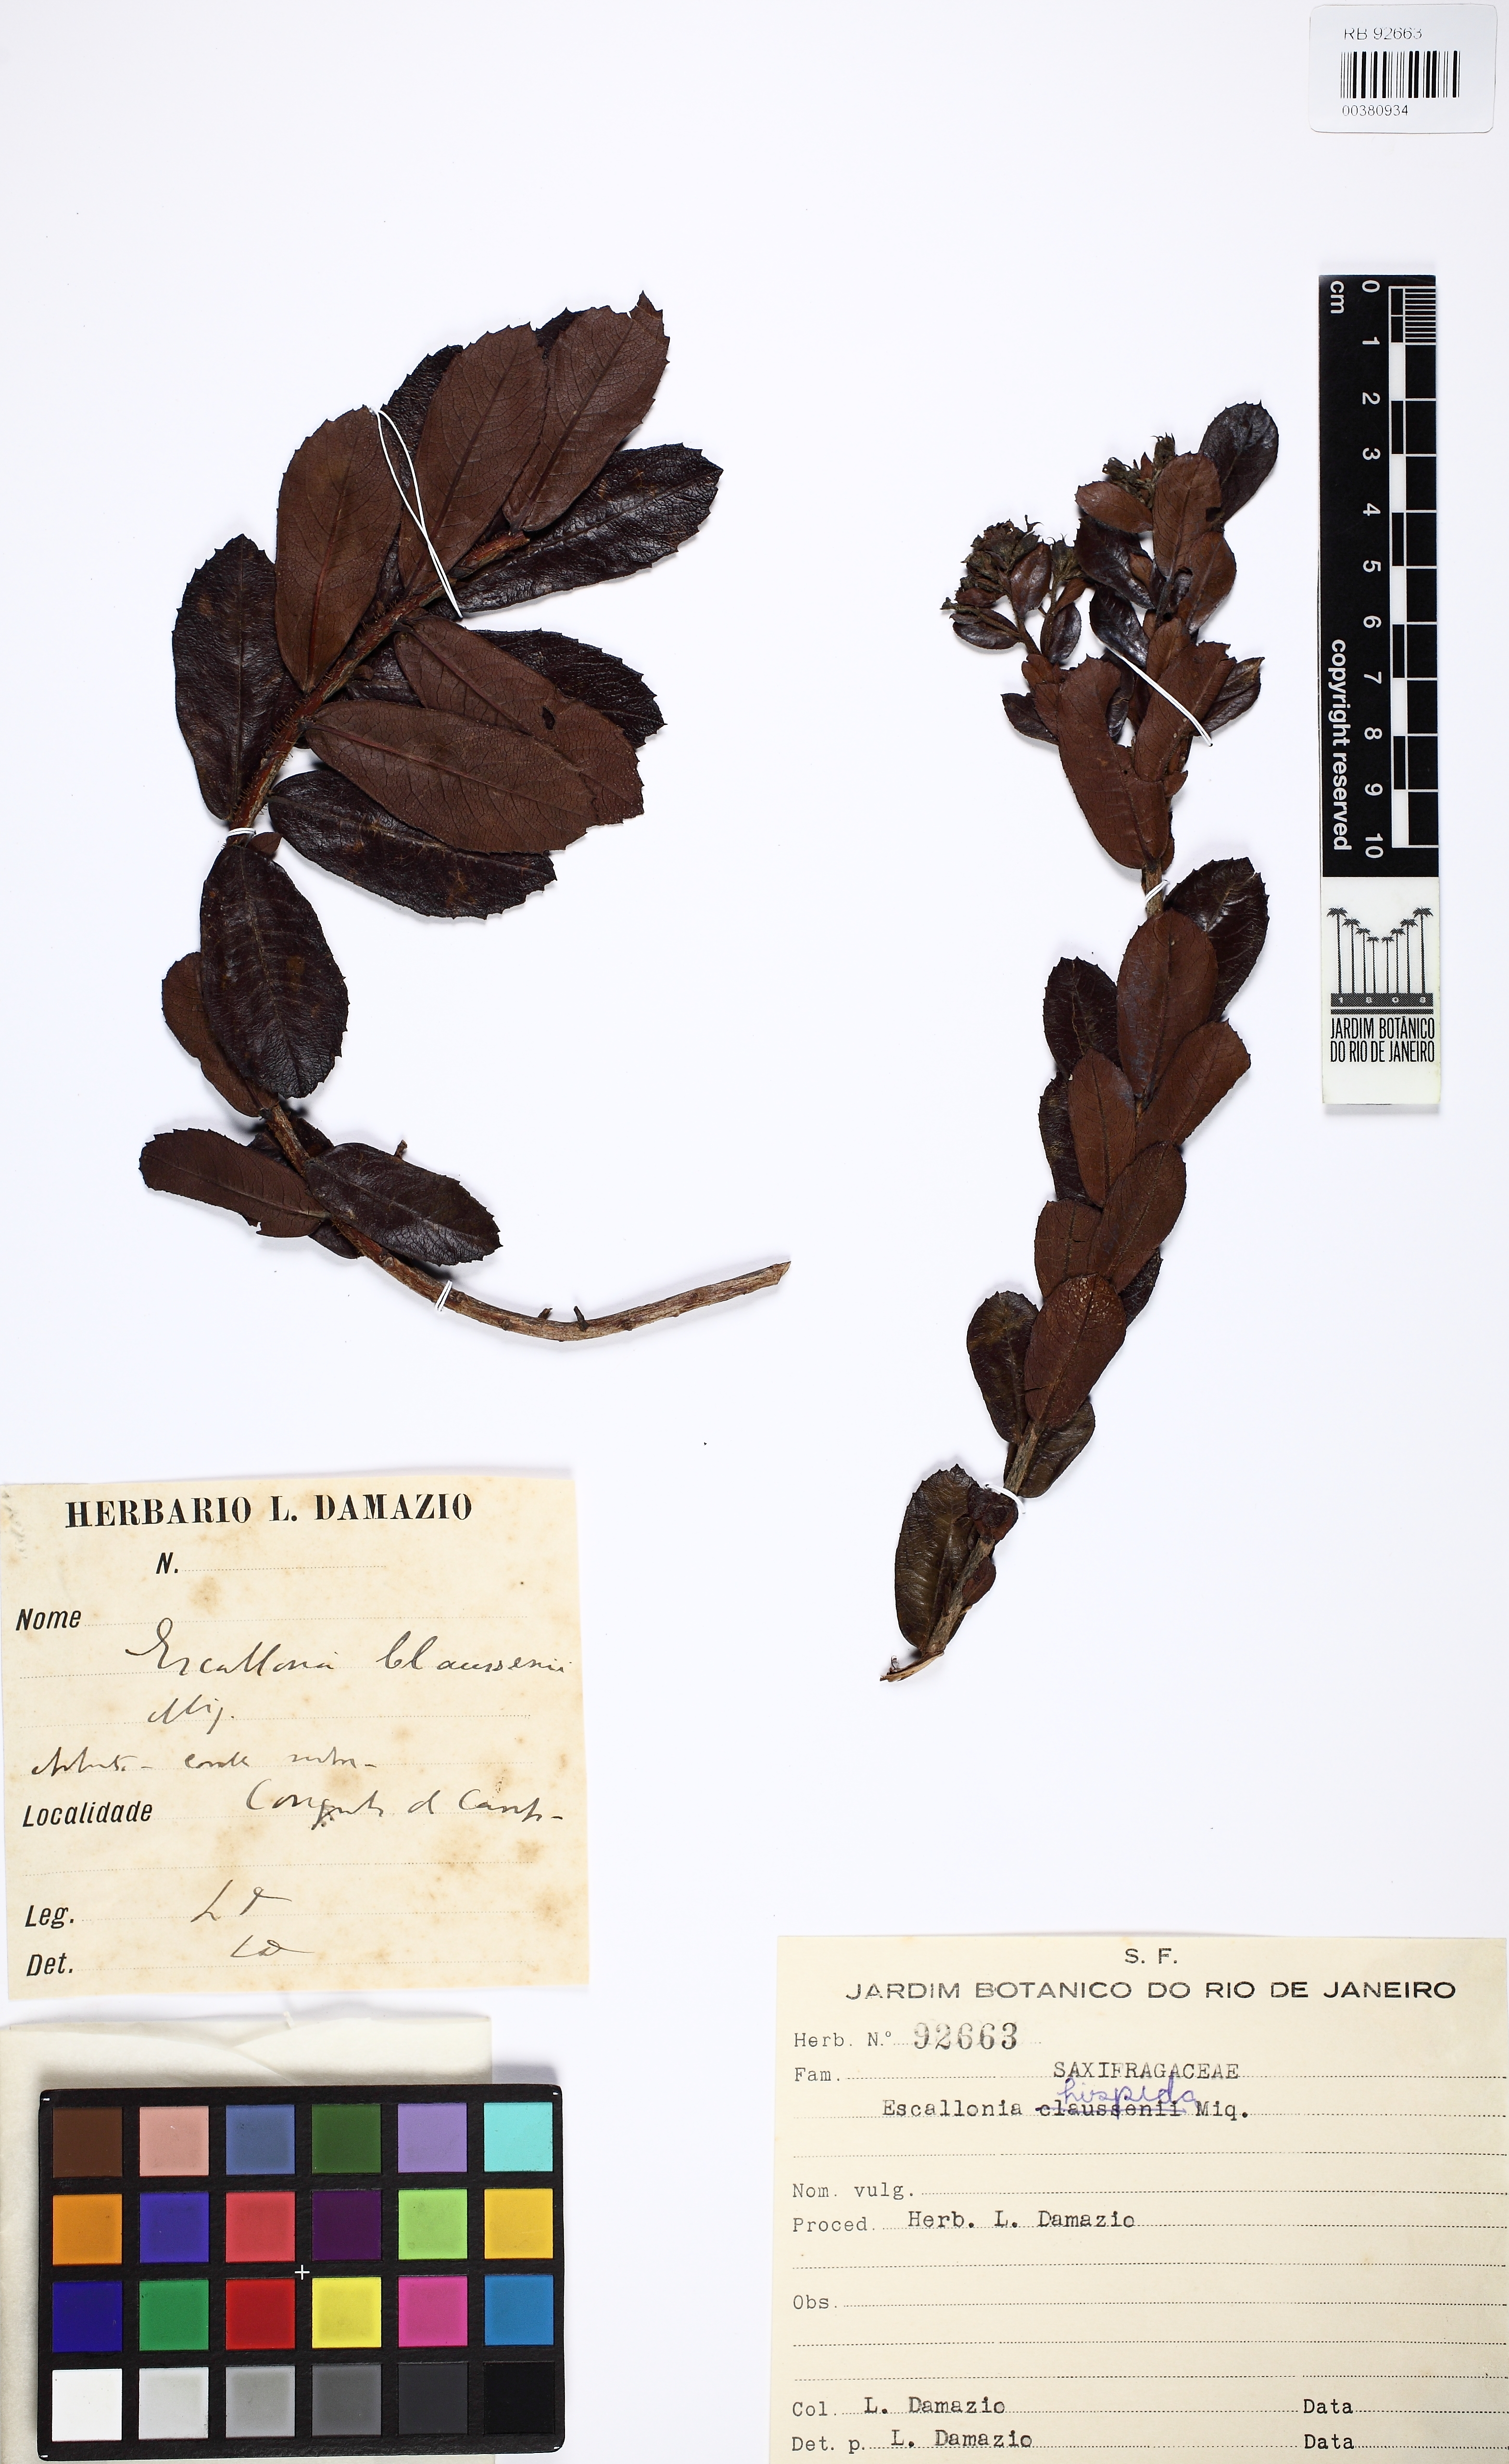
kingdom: Plantae
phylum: Tracheophyta
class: Magnoliopsida
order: Escalloniales
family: Escalloniaceae
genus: Escallonia
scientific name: Escallonia hispida
